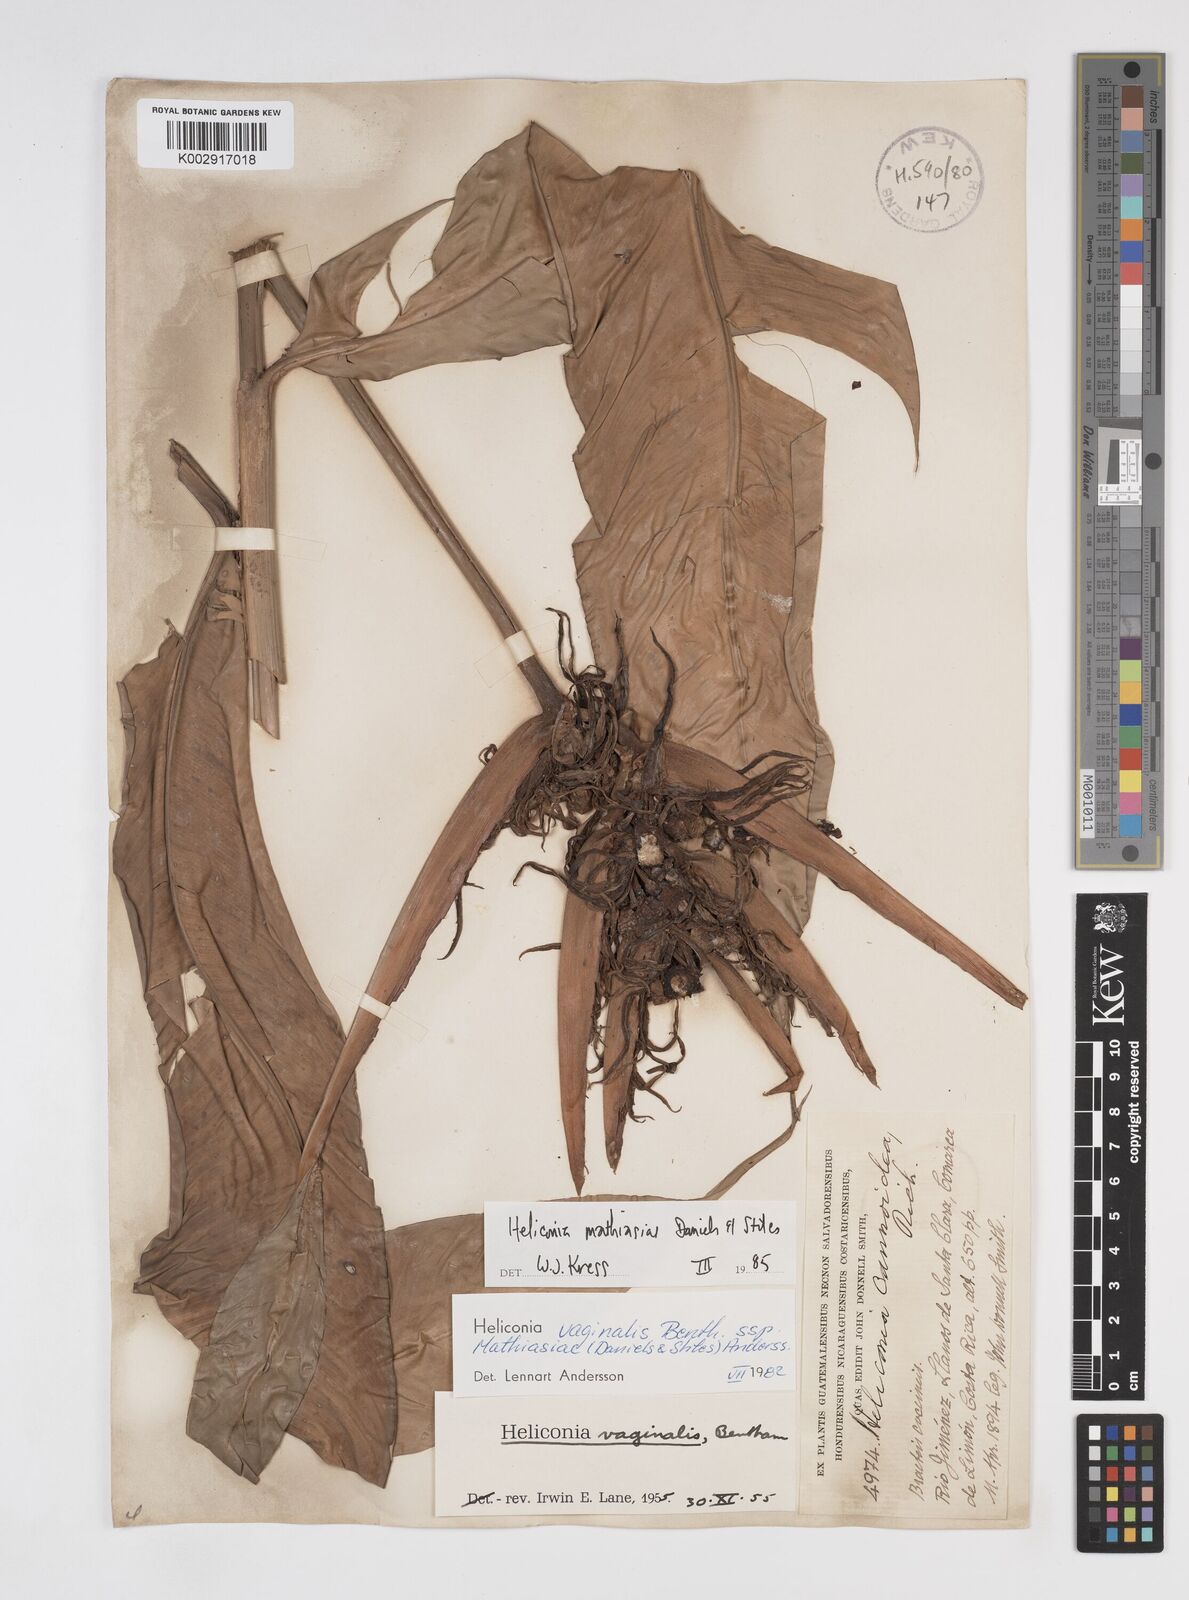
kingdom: Plantae
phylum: Tracheophyta
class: Liliopsida
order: Zingiberales
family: Heliconiaceae
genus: Heliconia
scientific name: Heliconia mathiasiae
